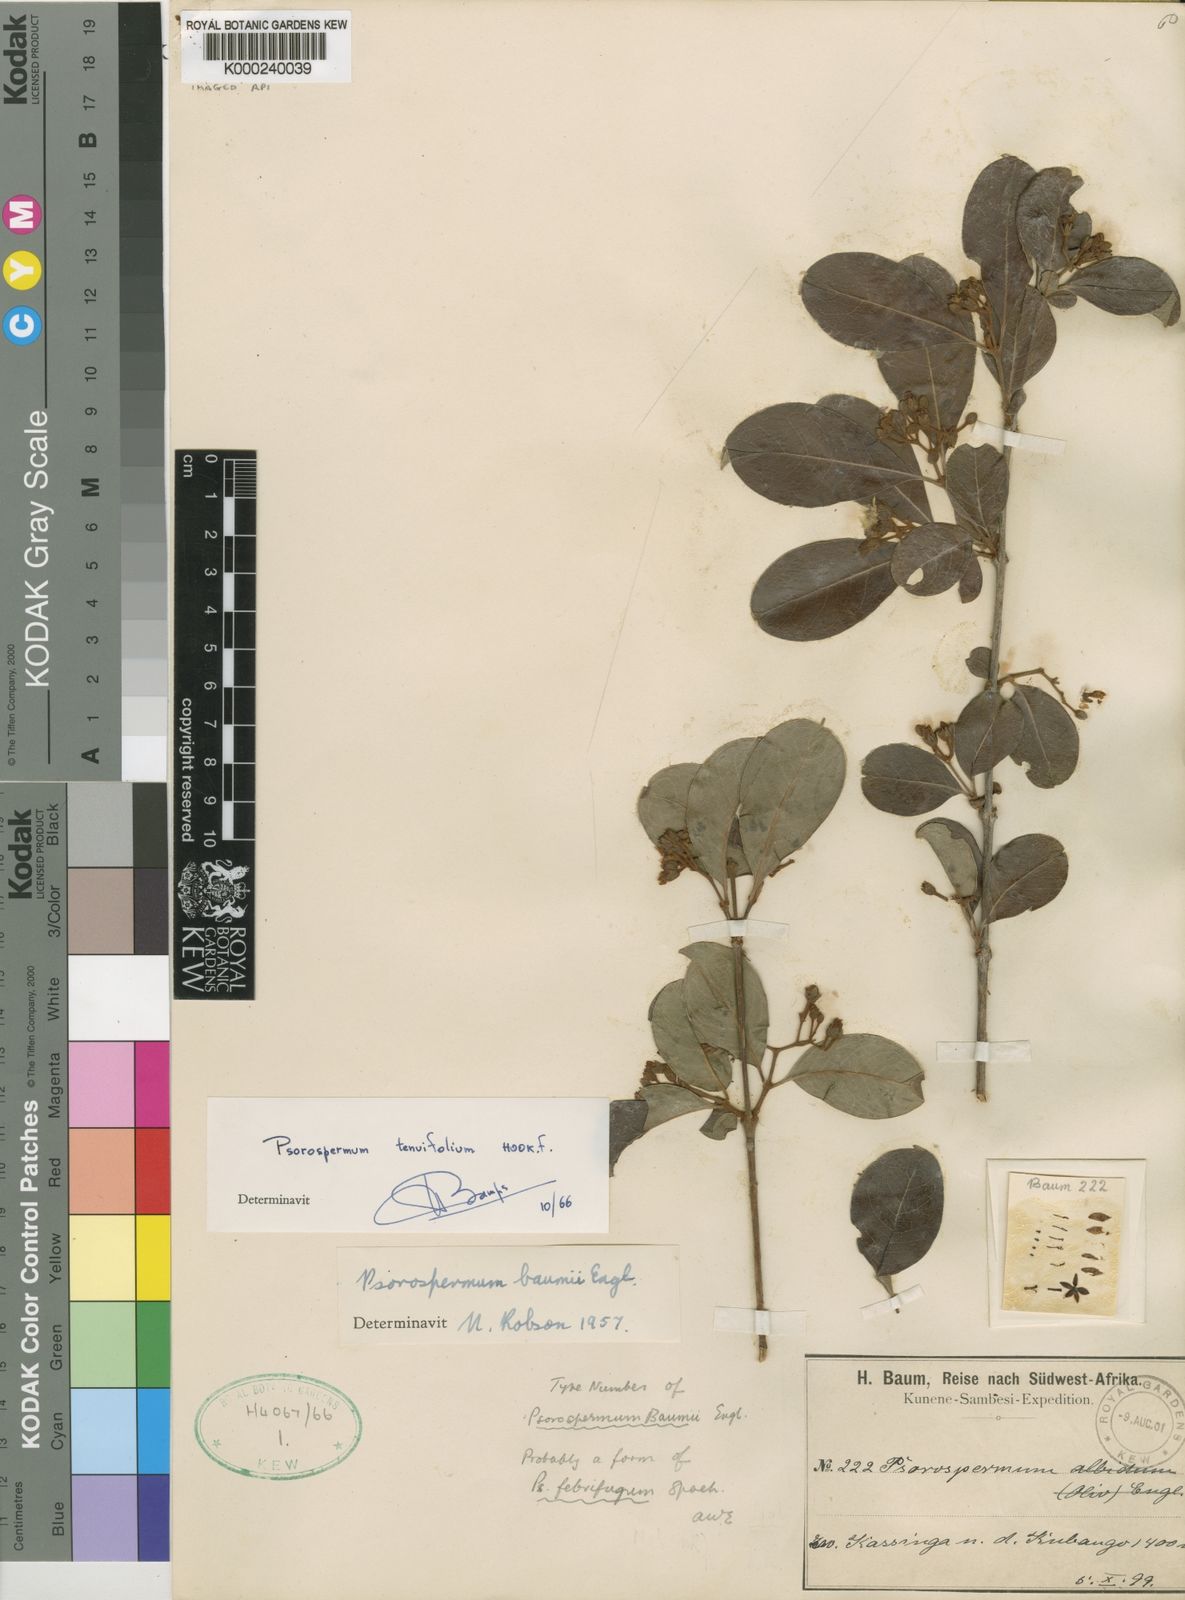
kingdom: Plantae
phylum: Tracheophyta
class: Magnoliopsida
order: Malpighiales
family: Hypericaceae
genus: Psorospermum
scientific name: Psorospermum baumii
